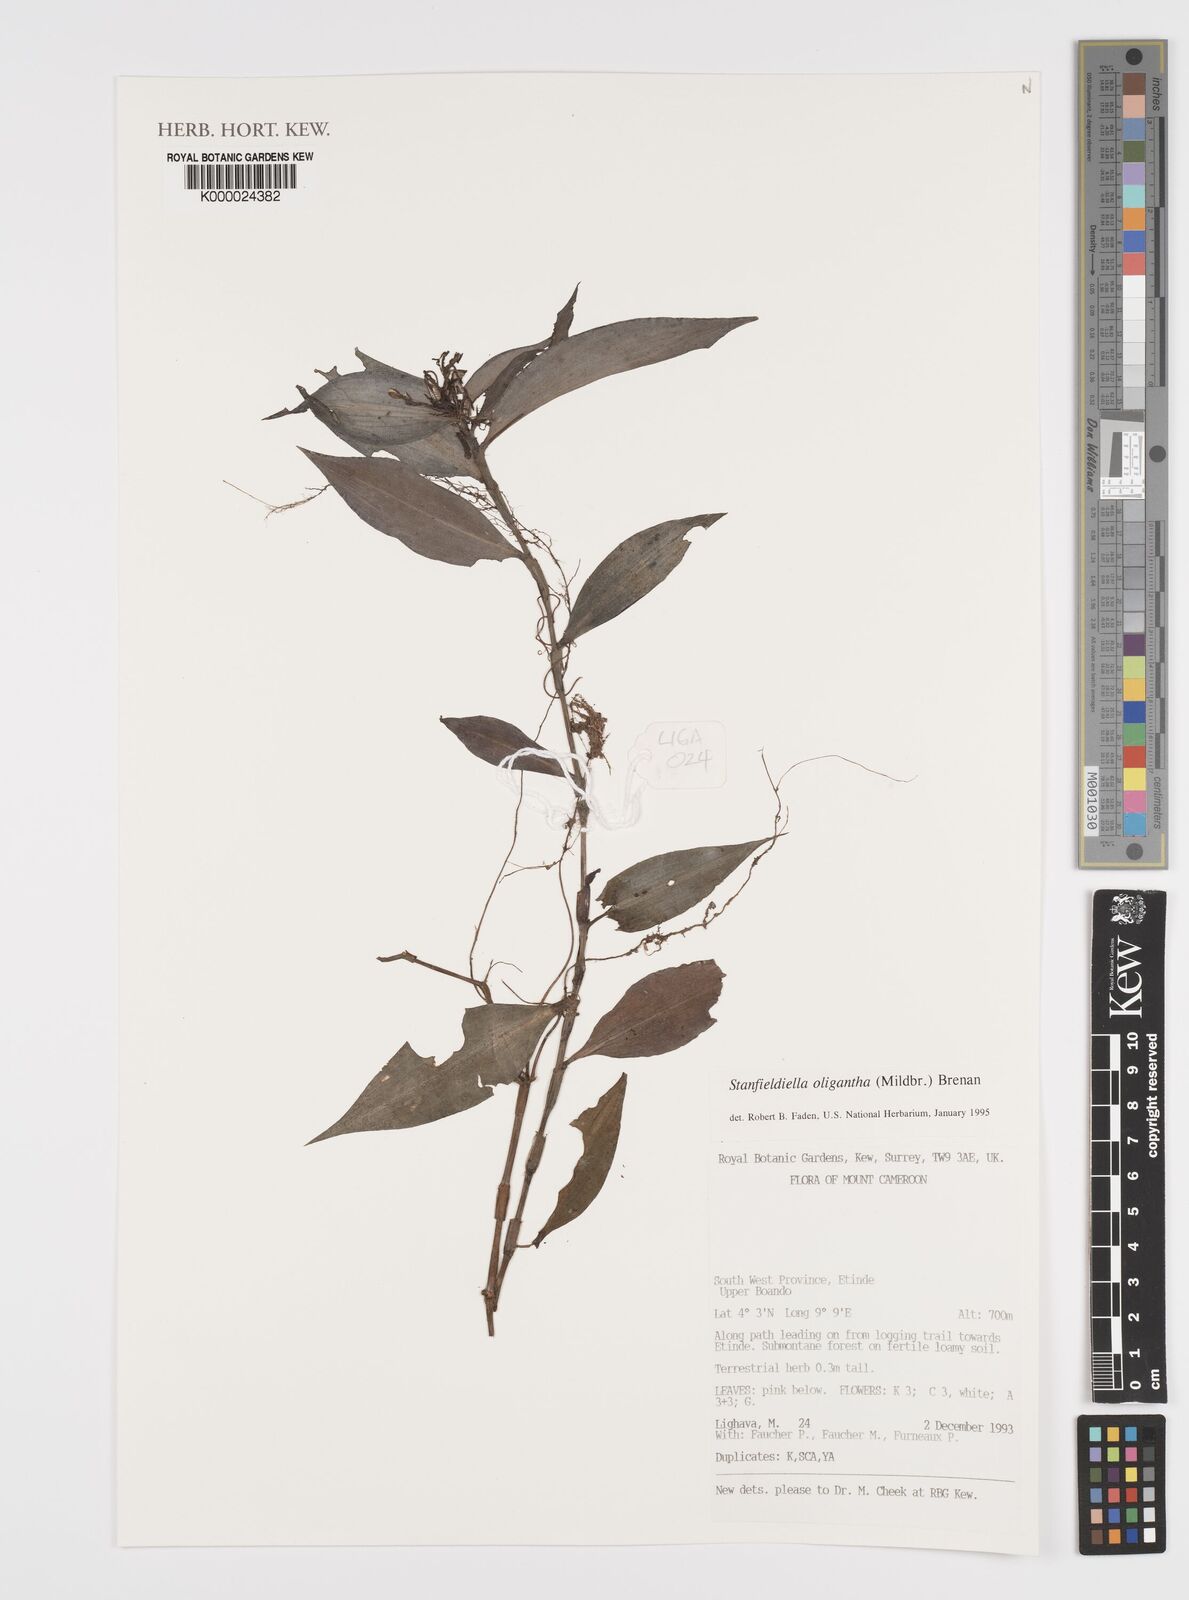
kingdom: Plantae
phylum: Tracheophyta
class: Liliopsida
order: Commelinales
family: Commelinaceae
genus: Stanfieldiella
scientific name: Stanfieldiella oligantha
